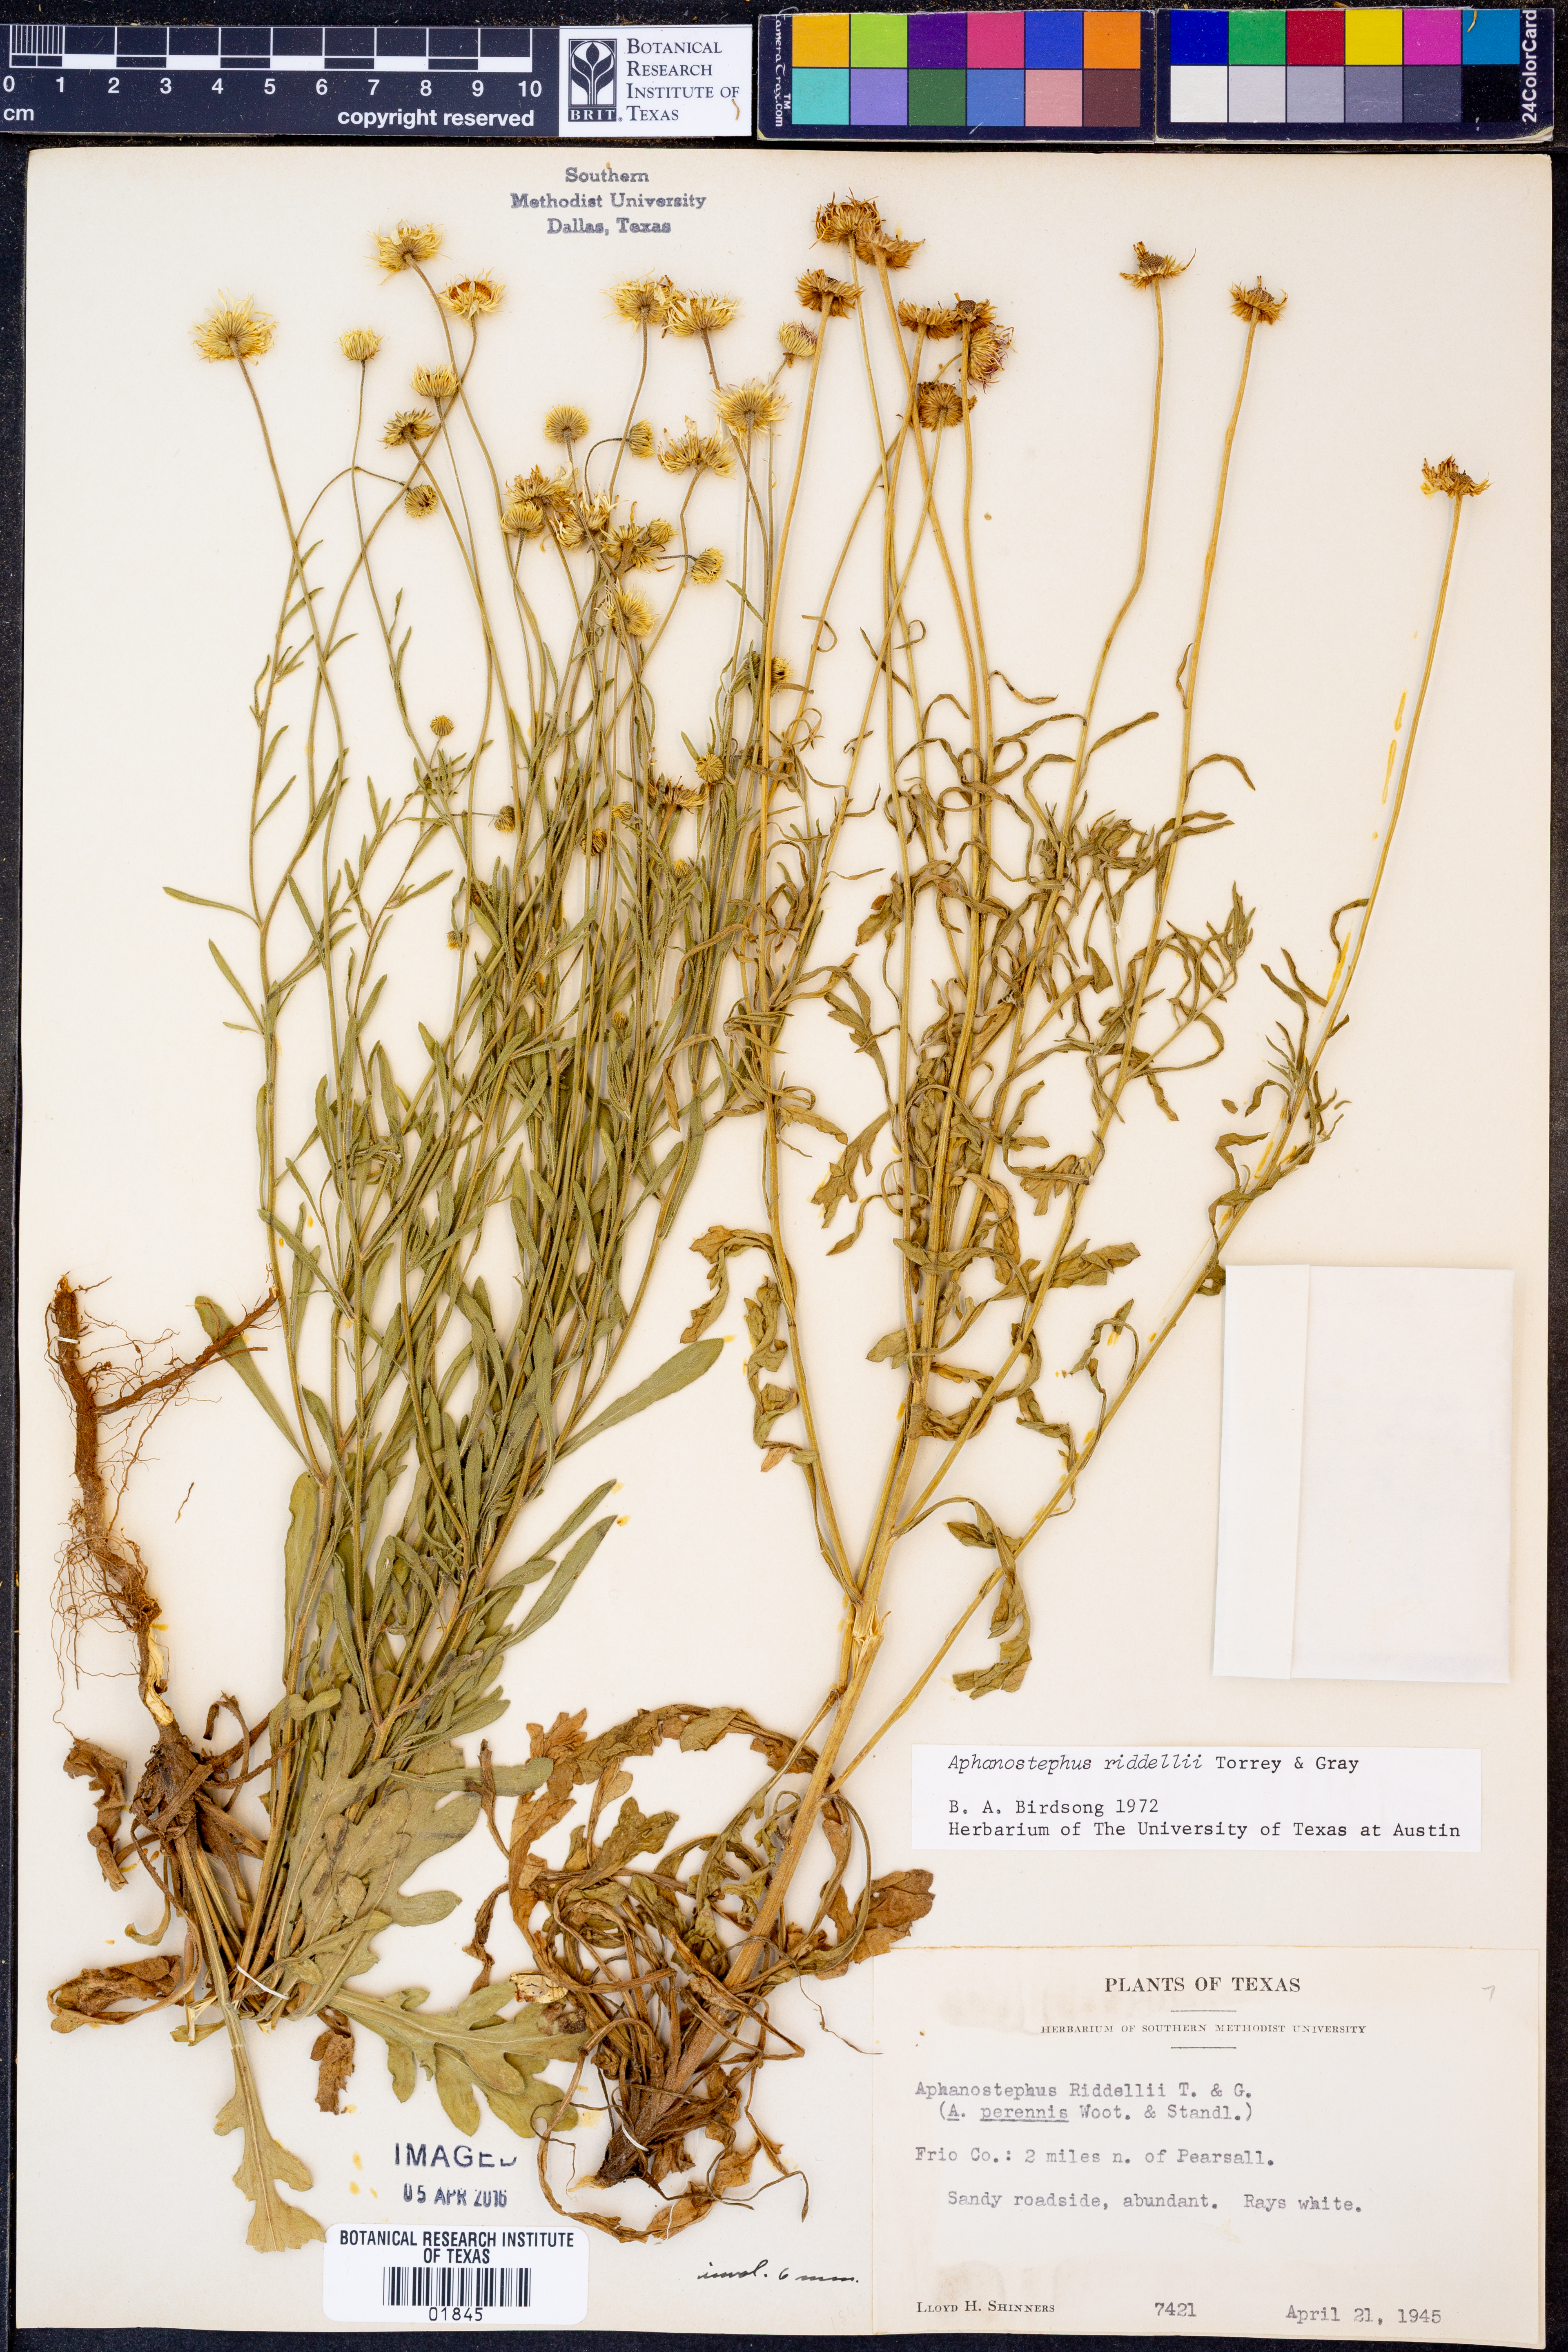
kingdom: Plantae
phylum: Tracheophyta
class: Magnoliopsida
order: Asterales
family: Asteraceae
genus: Aphanostephus
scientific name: Aphanostephus riddellii
